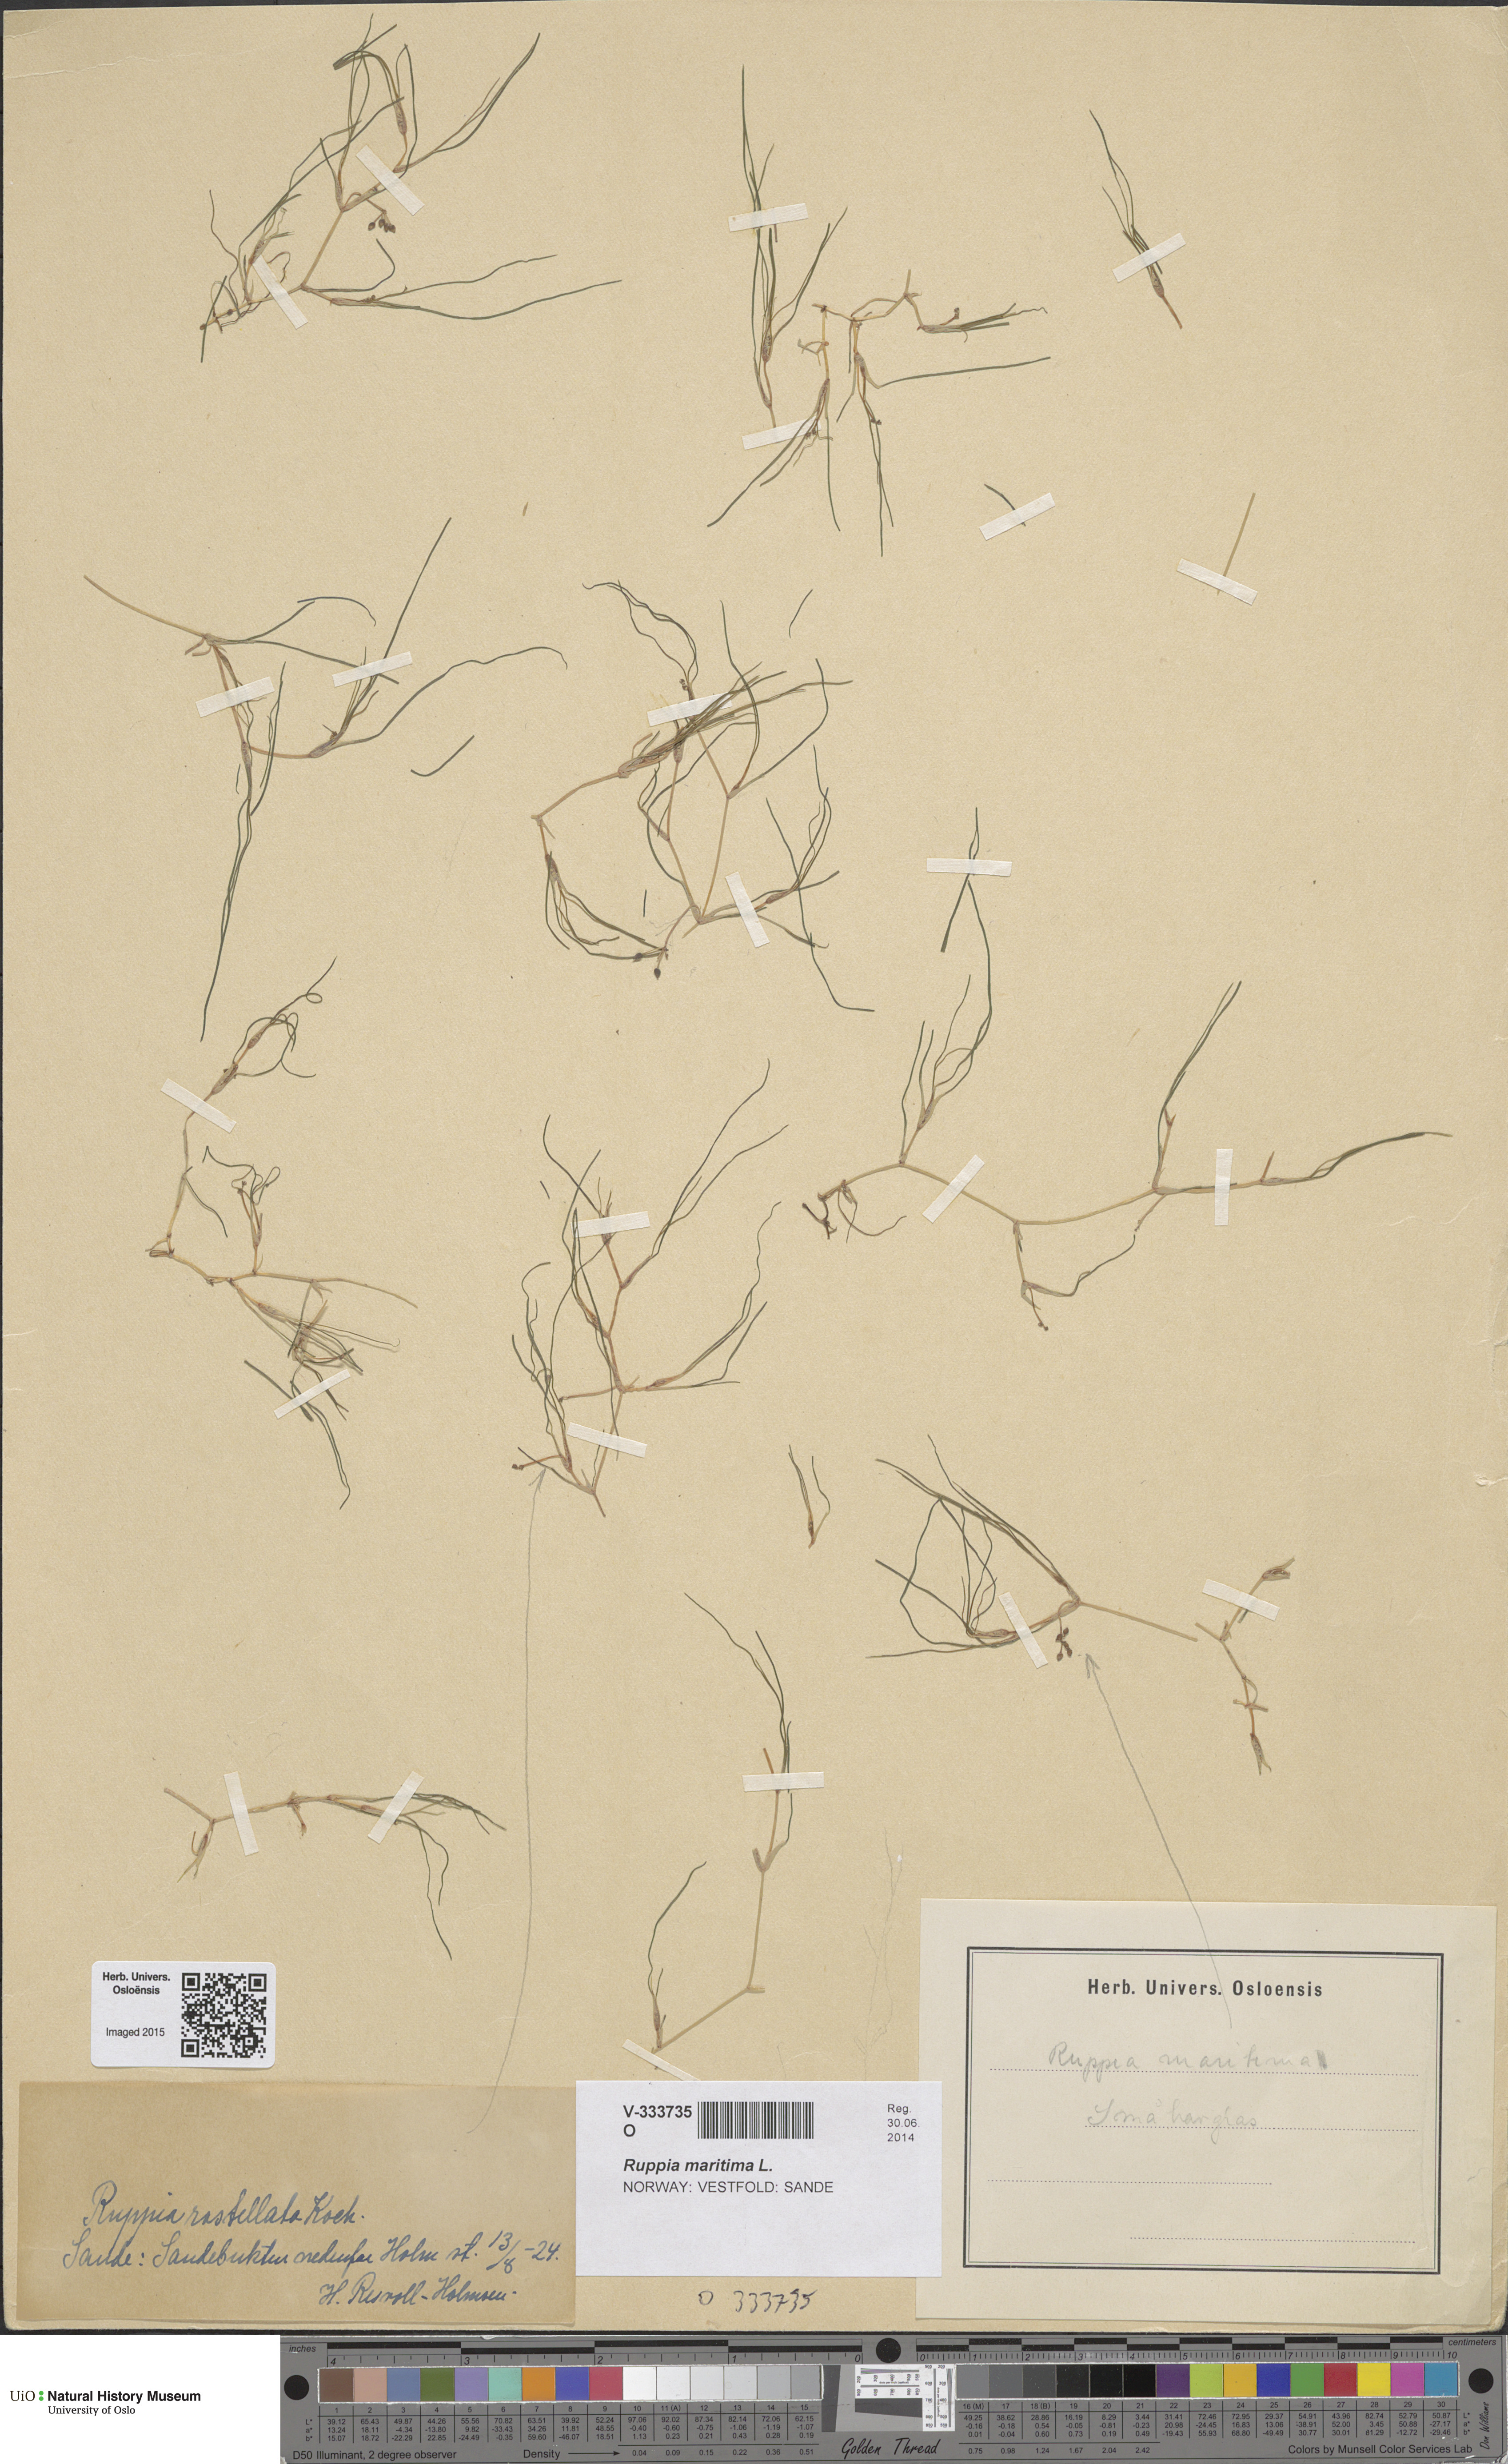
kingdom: Plantae
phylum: Tracheophyta
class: Liliopsida
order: Alismatales
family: Ruppiaceae
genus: Ruppia
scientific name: Ruppia maritima
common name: Beaked tasselweed
